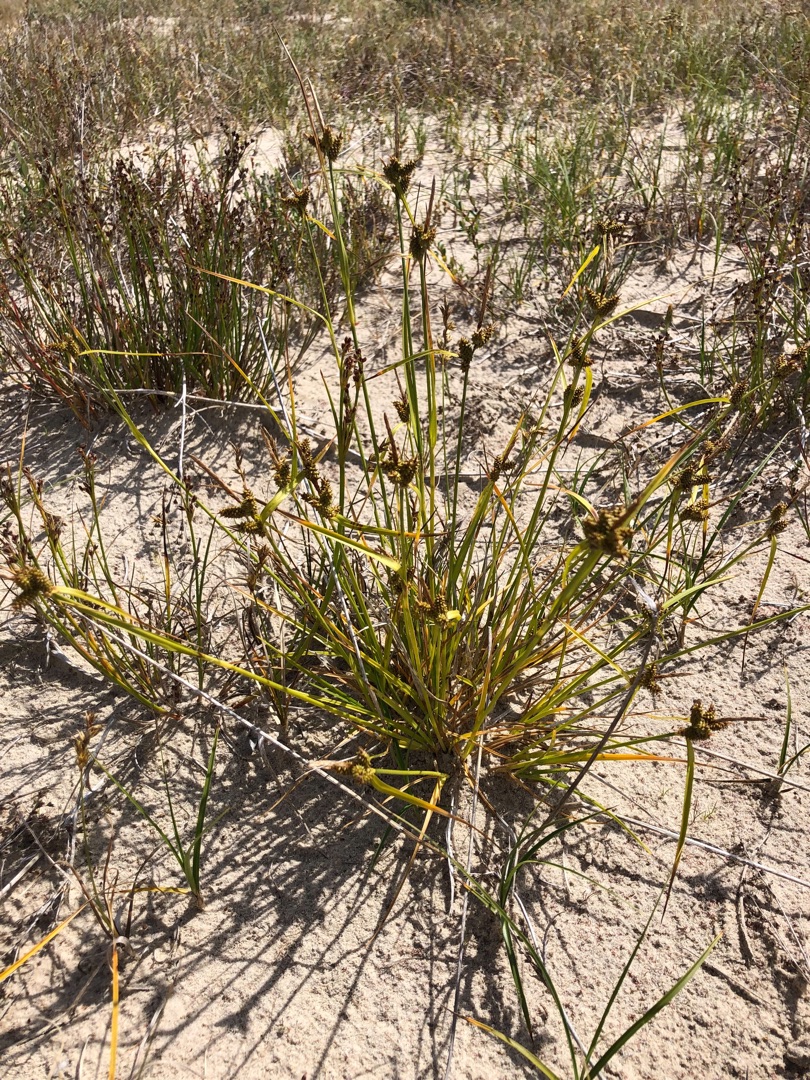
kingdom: Plantae
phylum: Tracheophyta
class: Liliopsida
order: Poales
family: Cyperaceae
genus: Carex
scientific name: Carex oederi
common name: Høst-star
